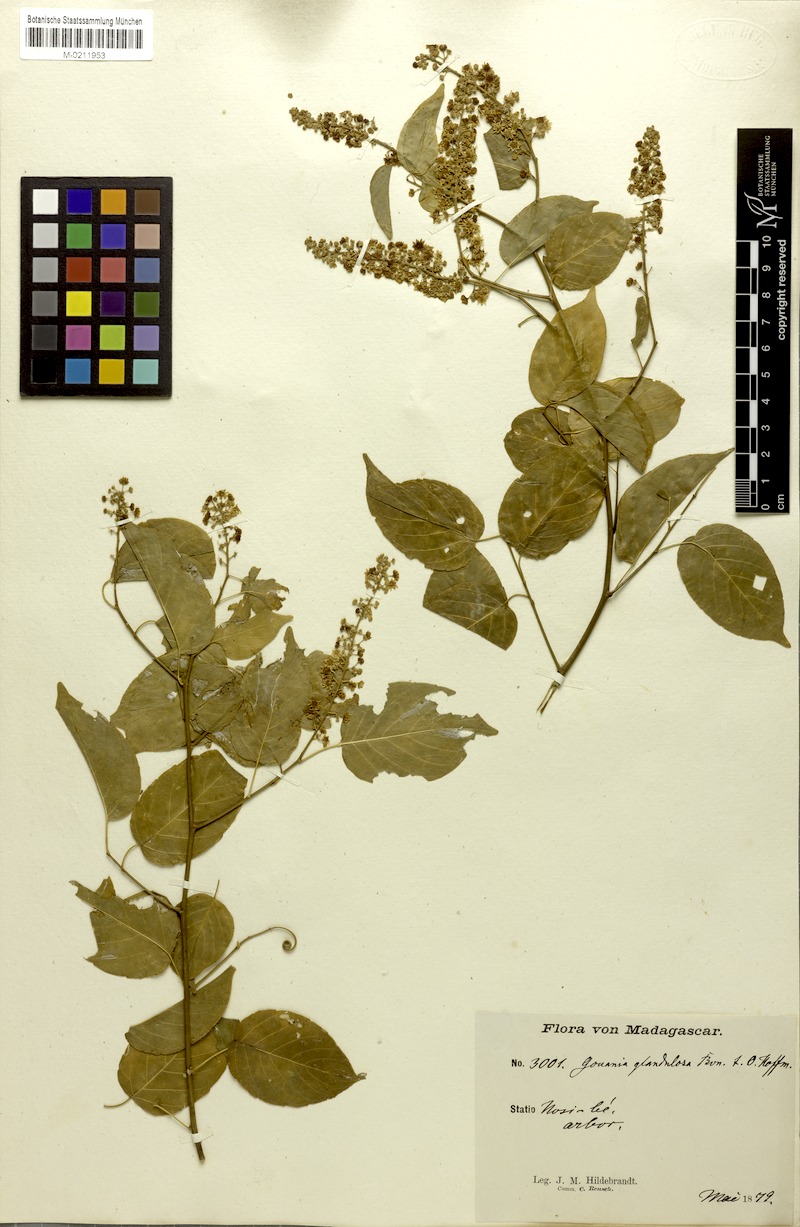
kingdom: Plantae
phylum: Tracheophyta
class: Magnoliopsida
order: Rosales
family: Rhamnaceae
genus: Gouania
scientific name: Gouania
